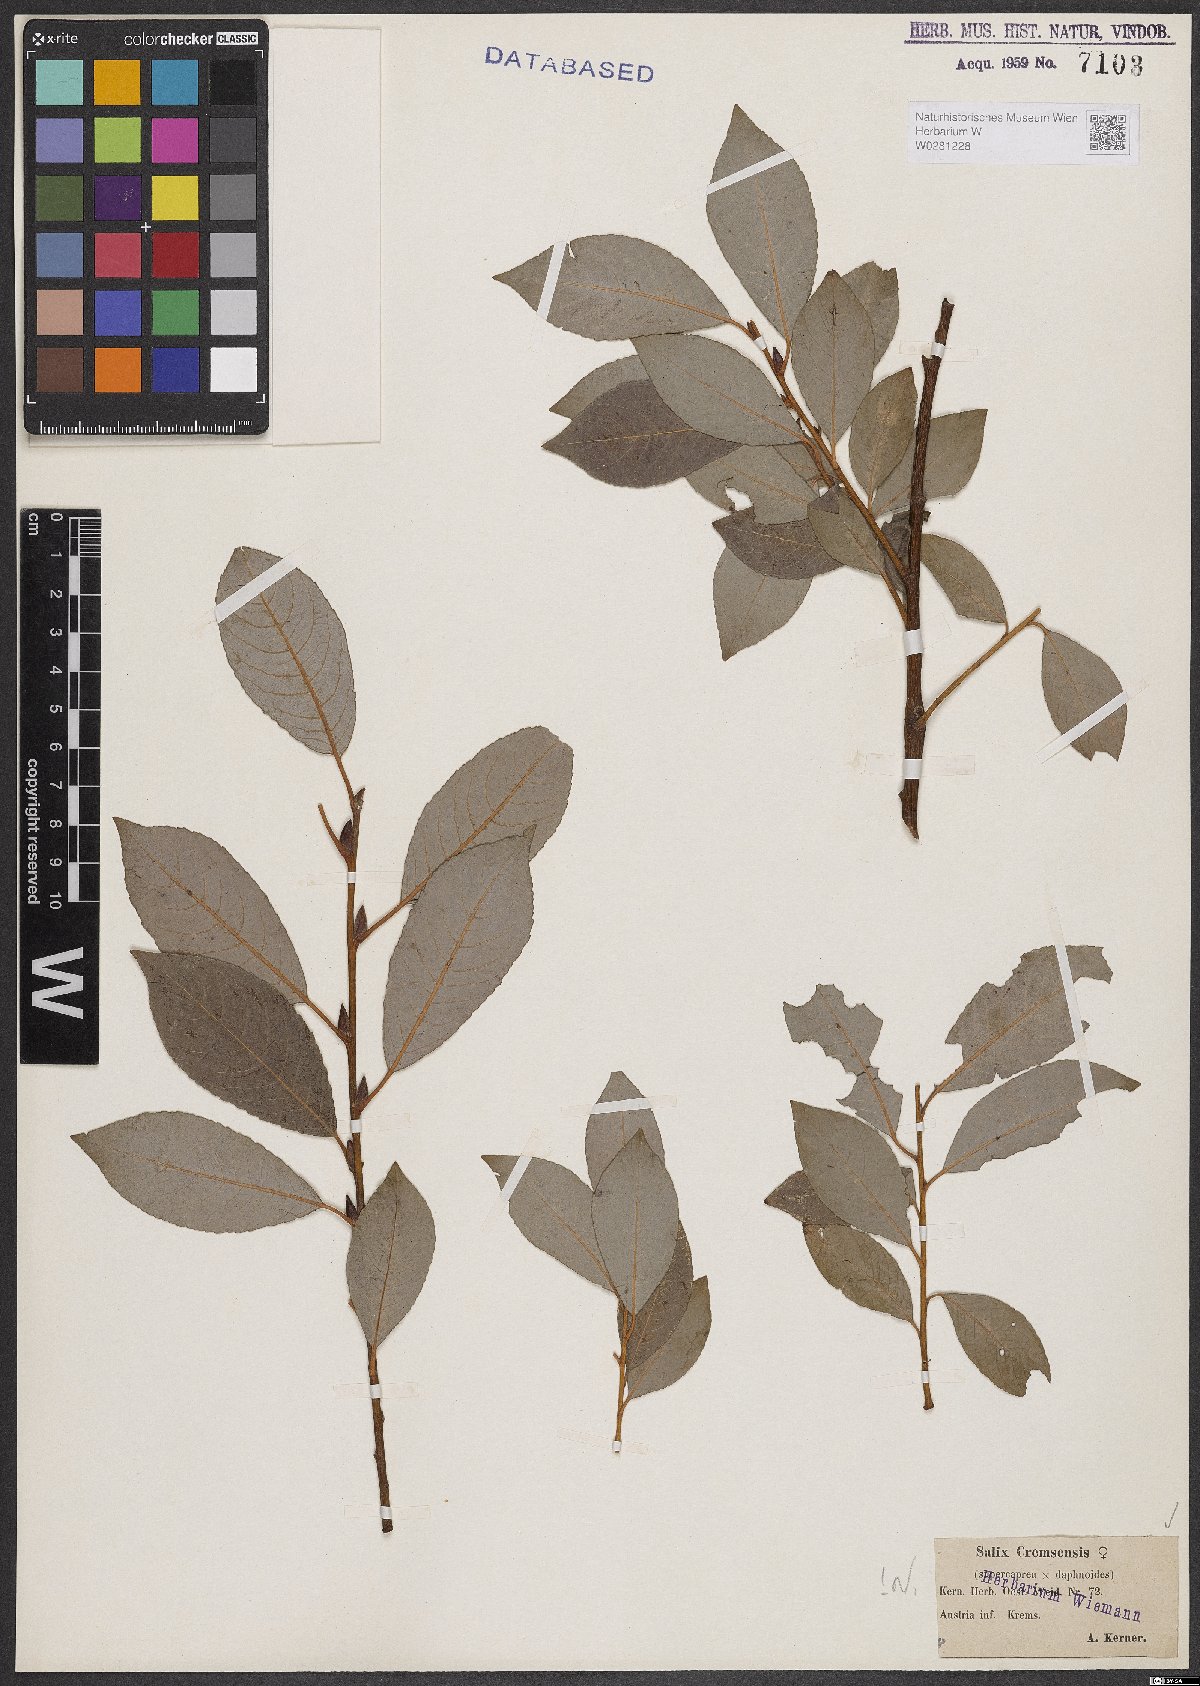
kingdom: Plantae
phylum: Tracheophyta
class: Magnoliopsida
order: Malpighiales
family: Salicaceae
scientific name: Salicaceae
